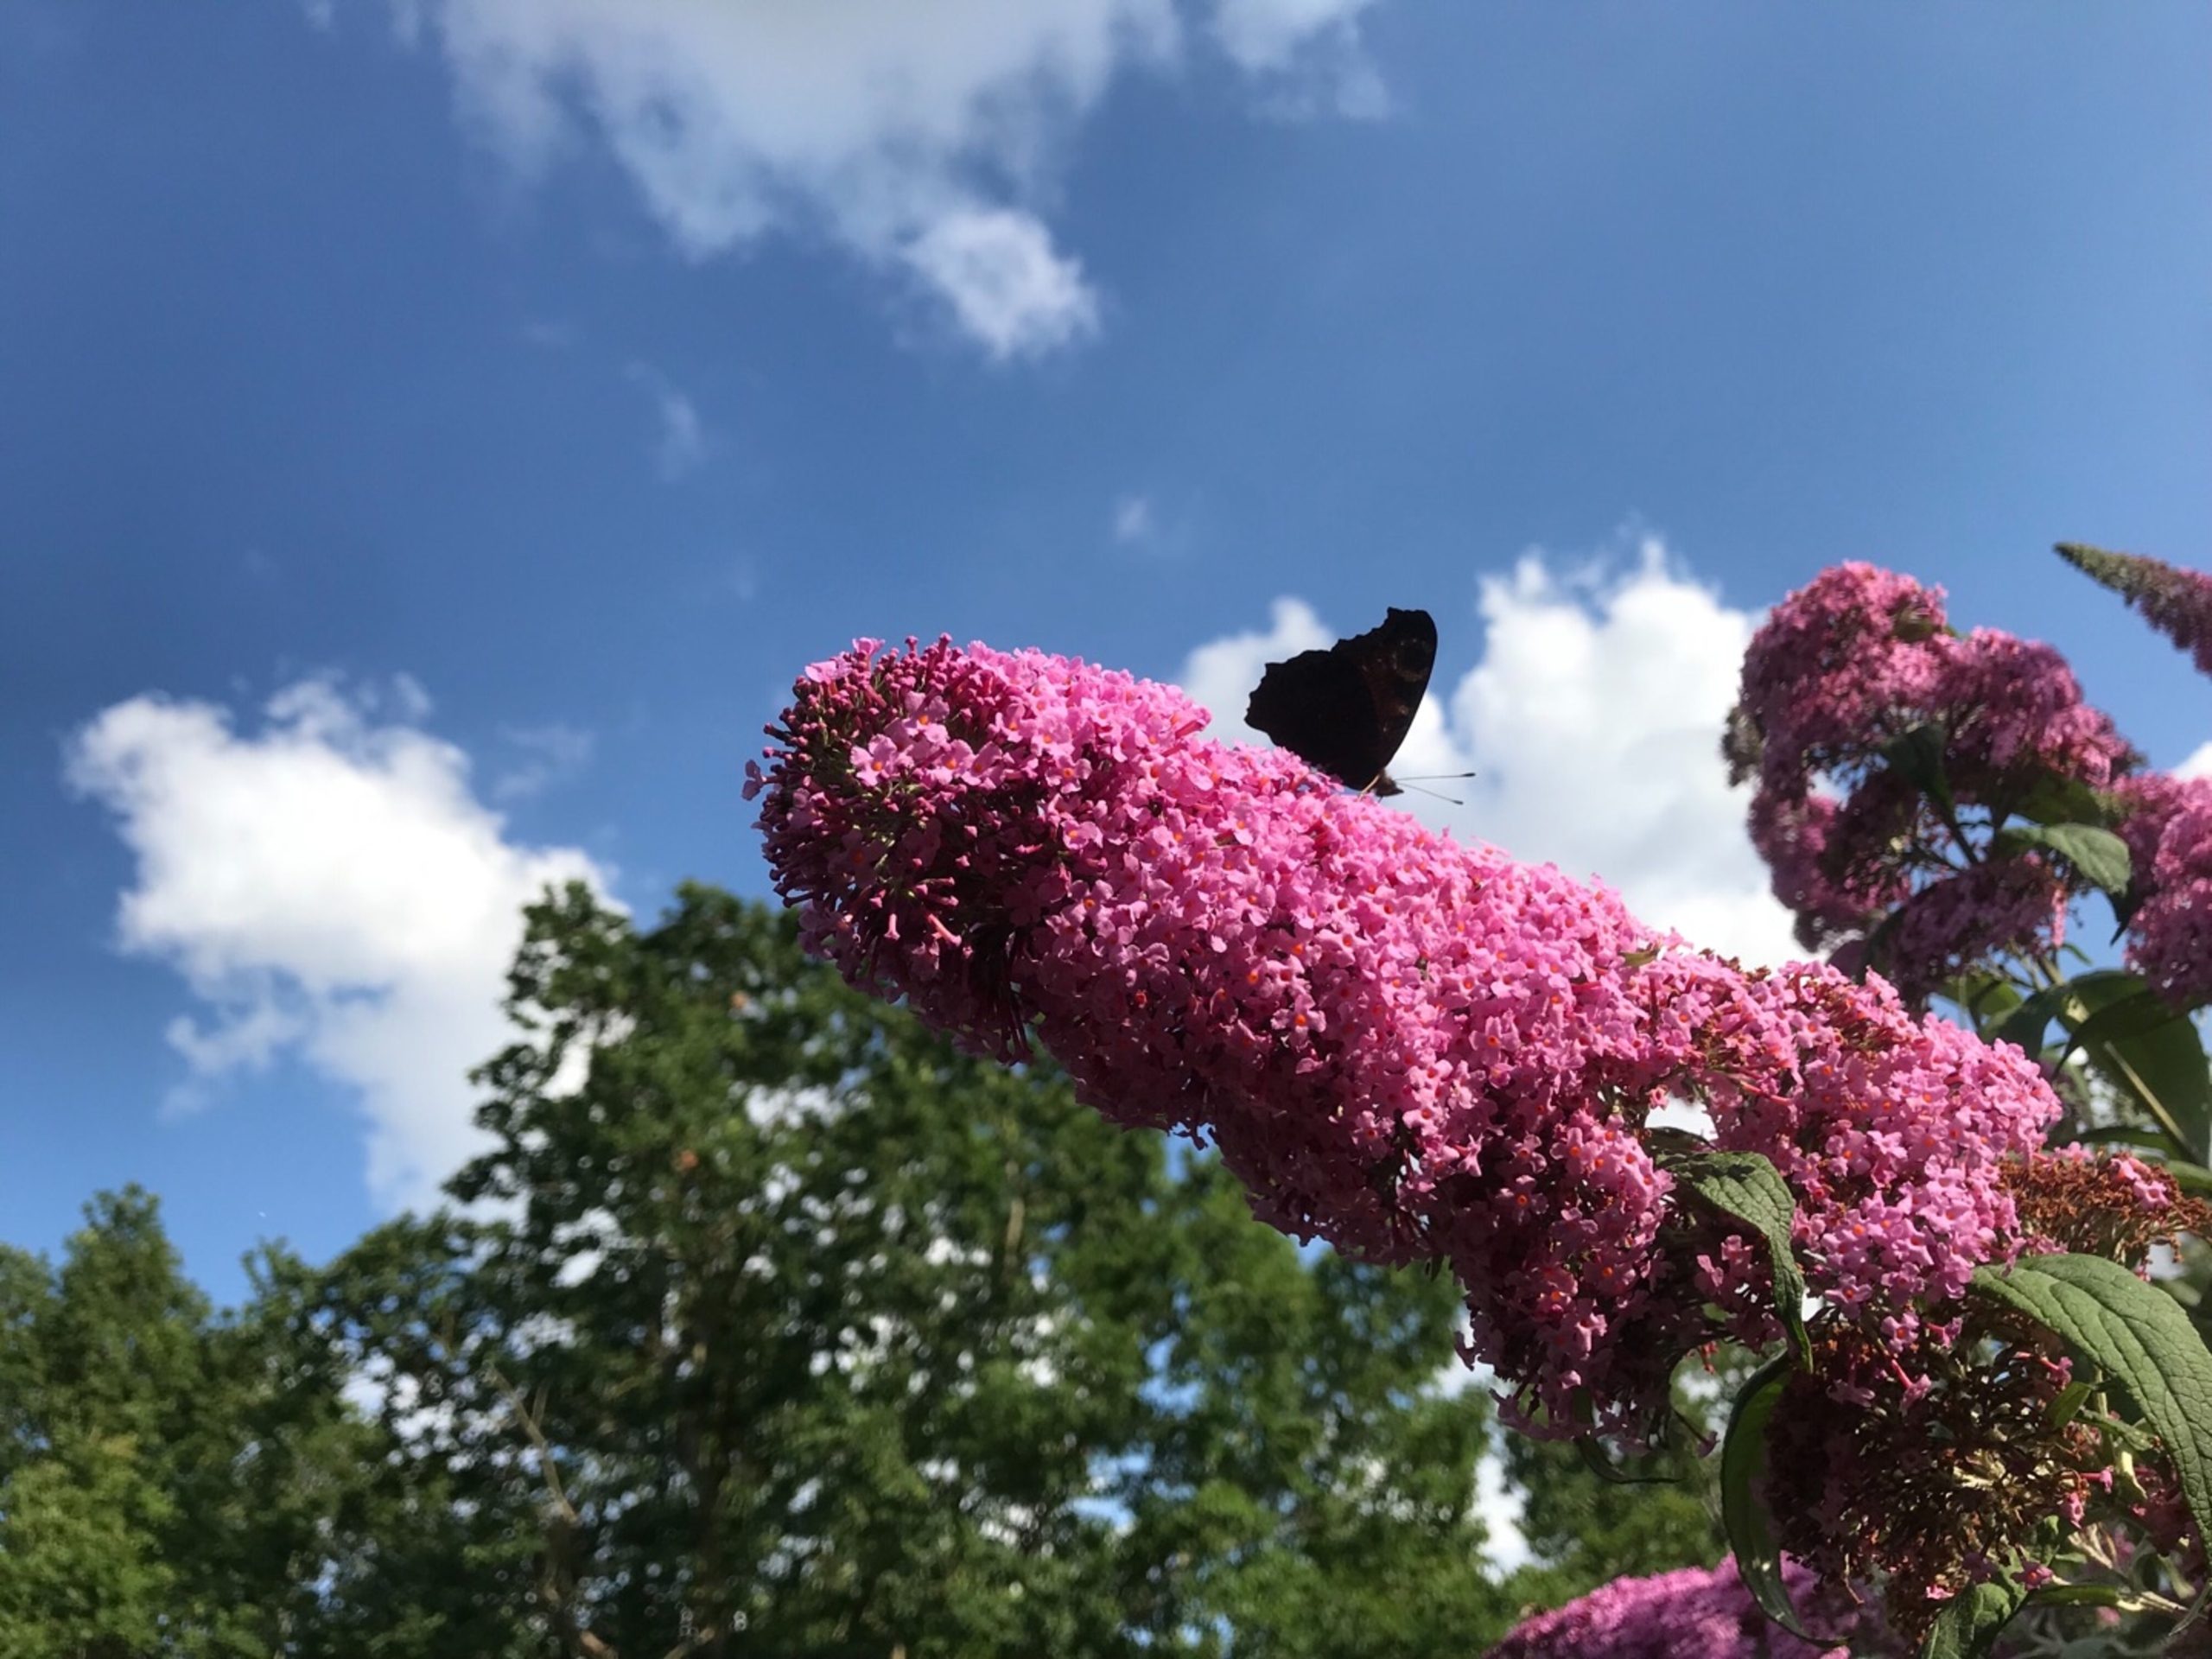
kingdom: Animalia
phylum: Arthropoda
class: Insecta
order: Lepidoptera
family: Nymphalidae
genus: Aglais
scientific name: Aglais io
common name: Dagpåfugleøje
